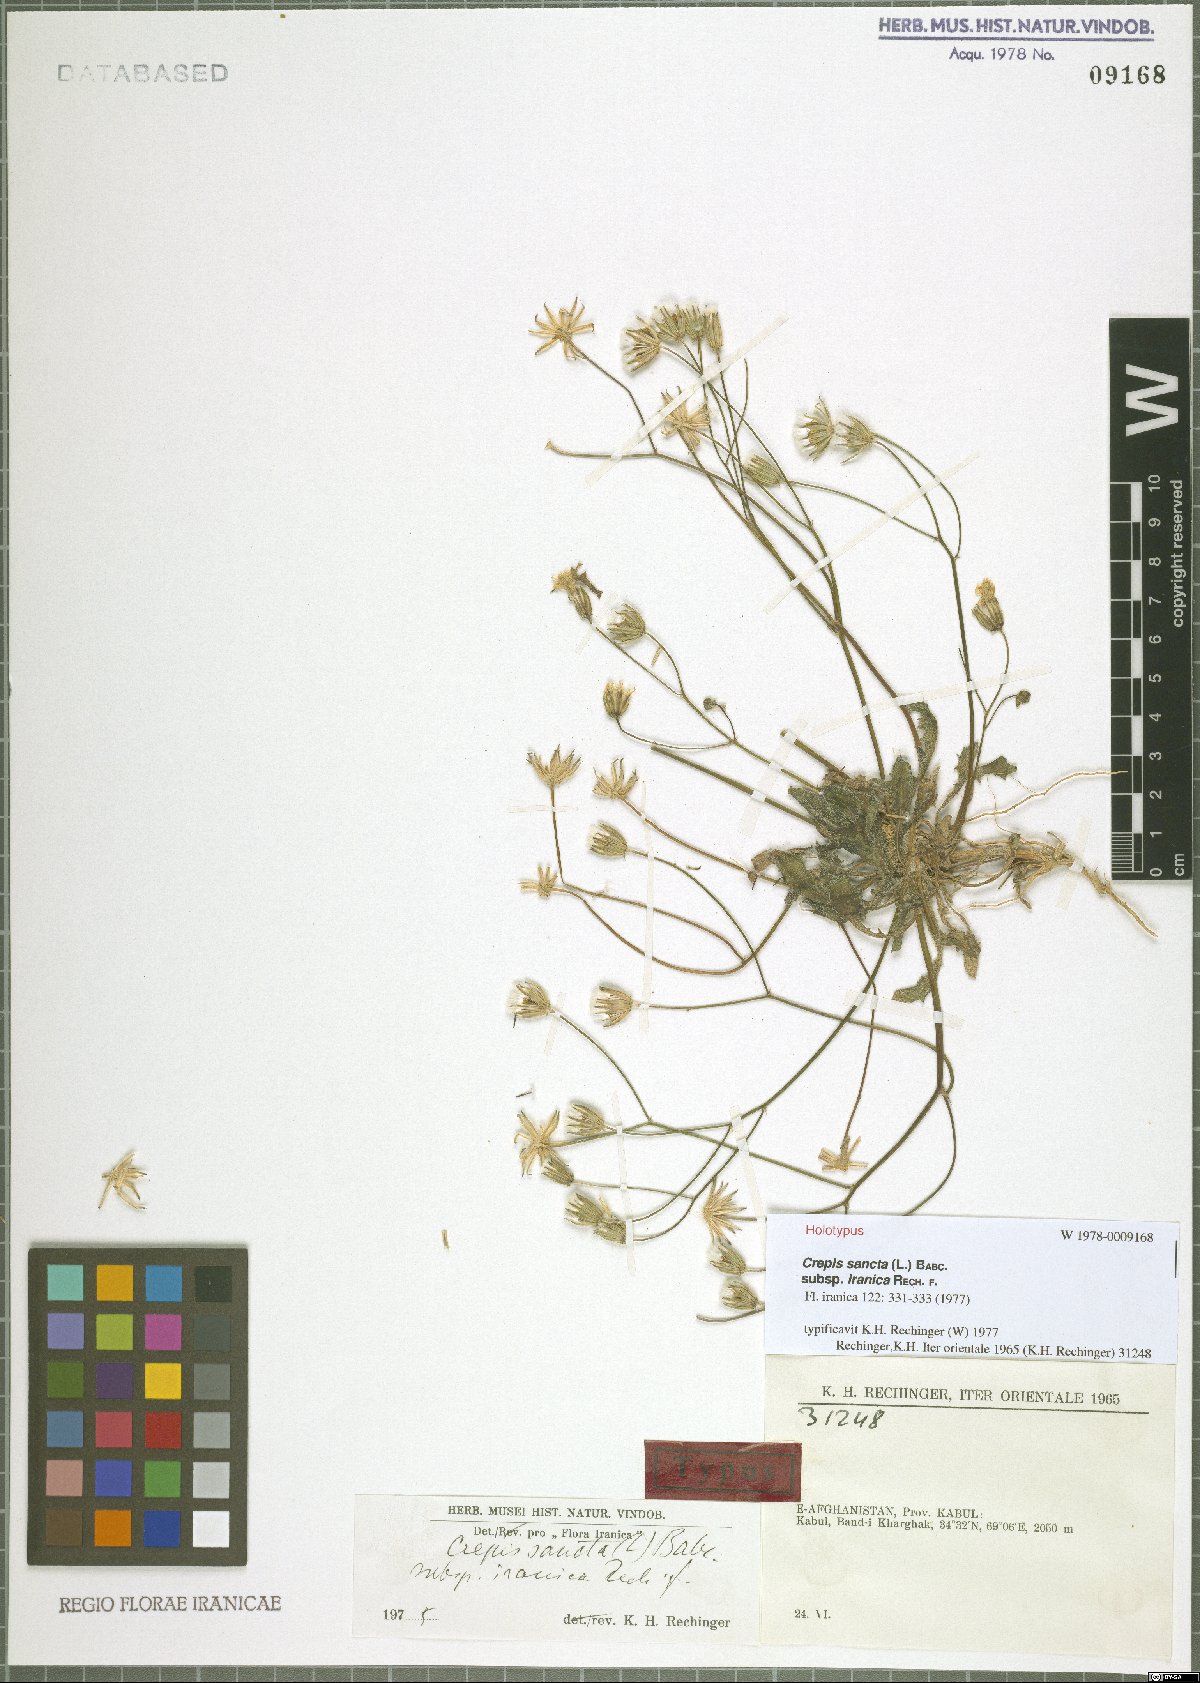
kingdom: Plantae
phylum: Tracheophyta
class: Magnoliopsida
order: Asterales
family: Asteraceae
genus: Crepis
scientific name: Crepis sancta
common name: Hawk's-beard
